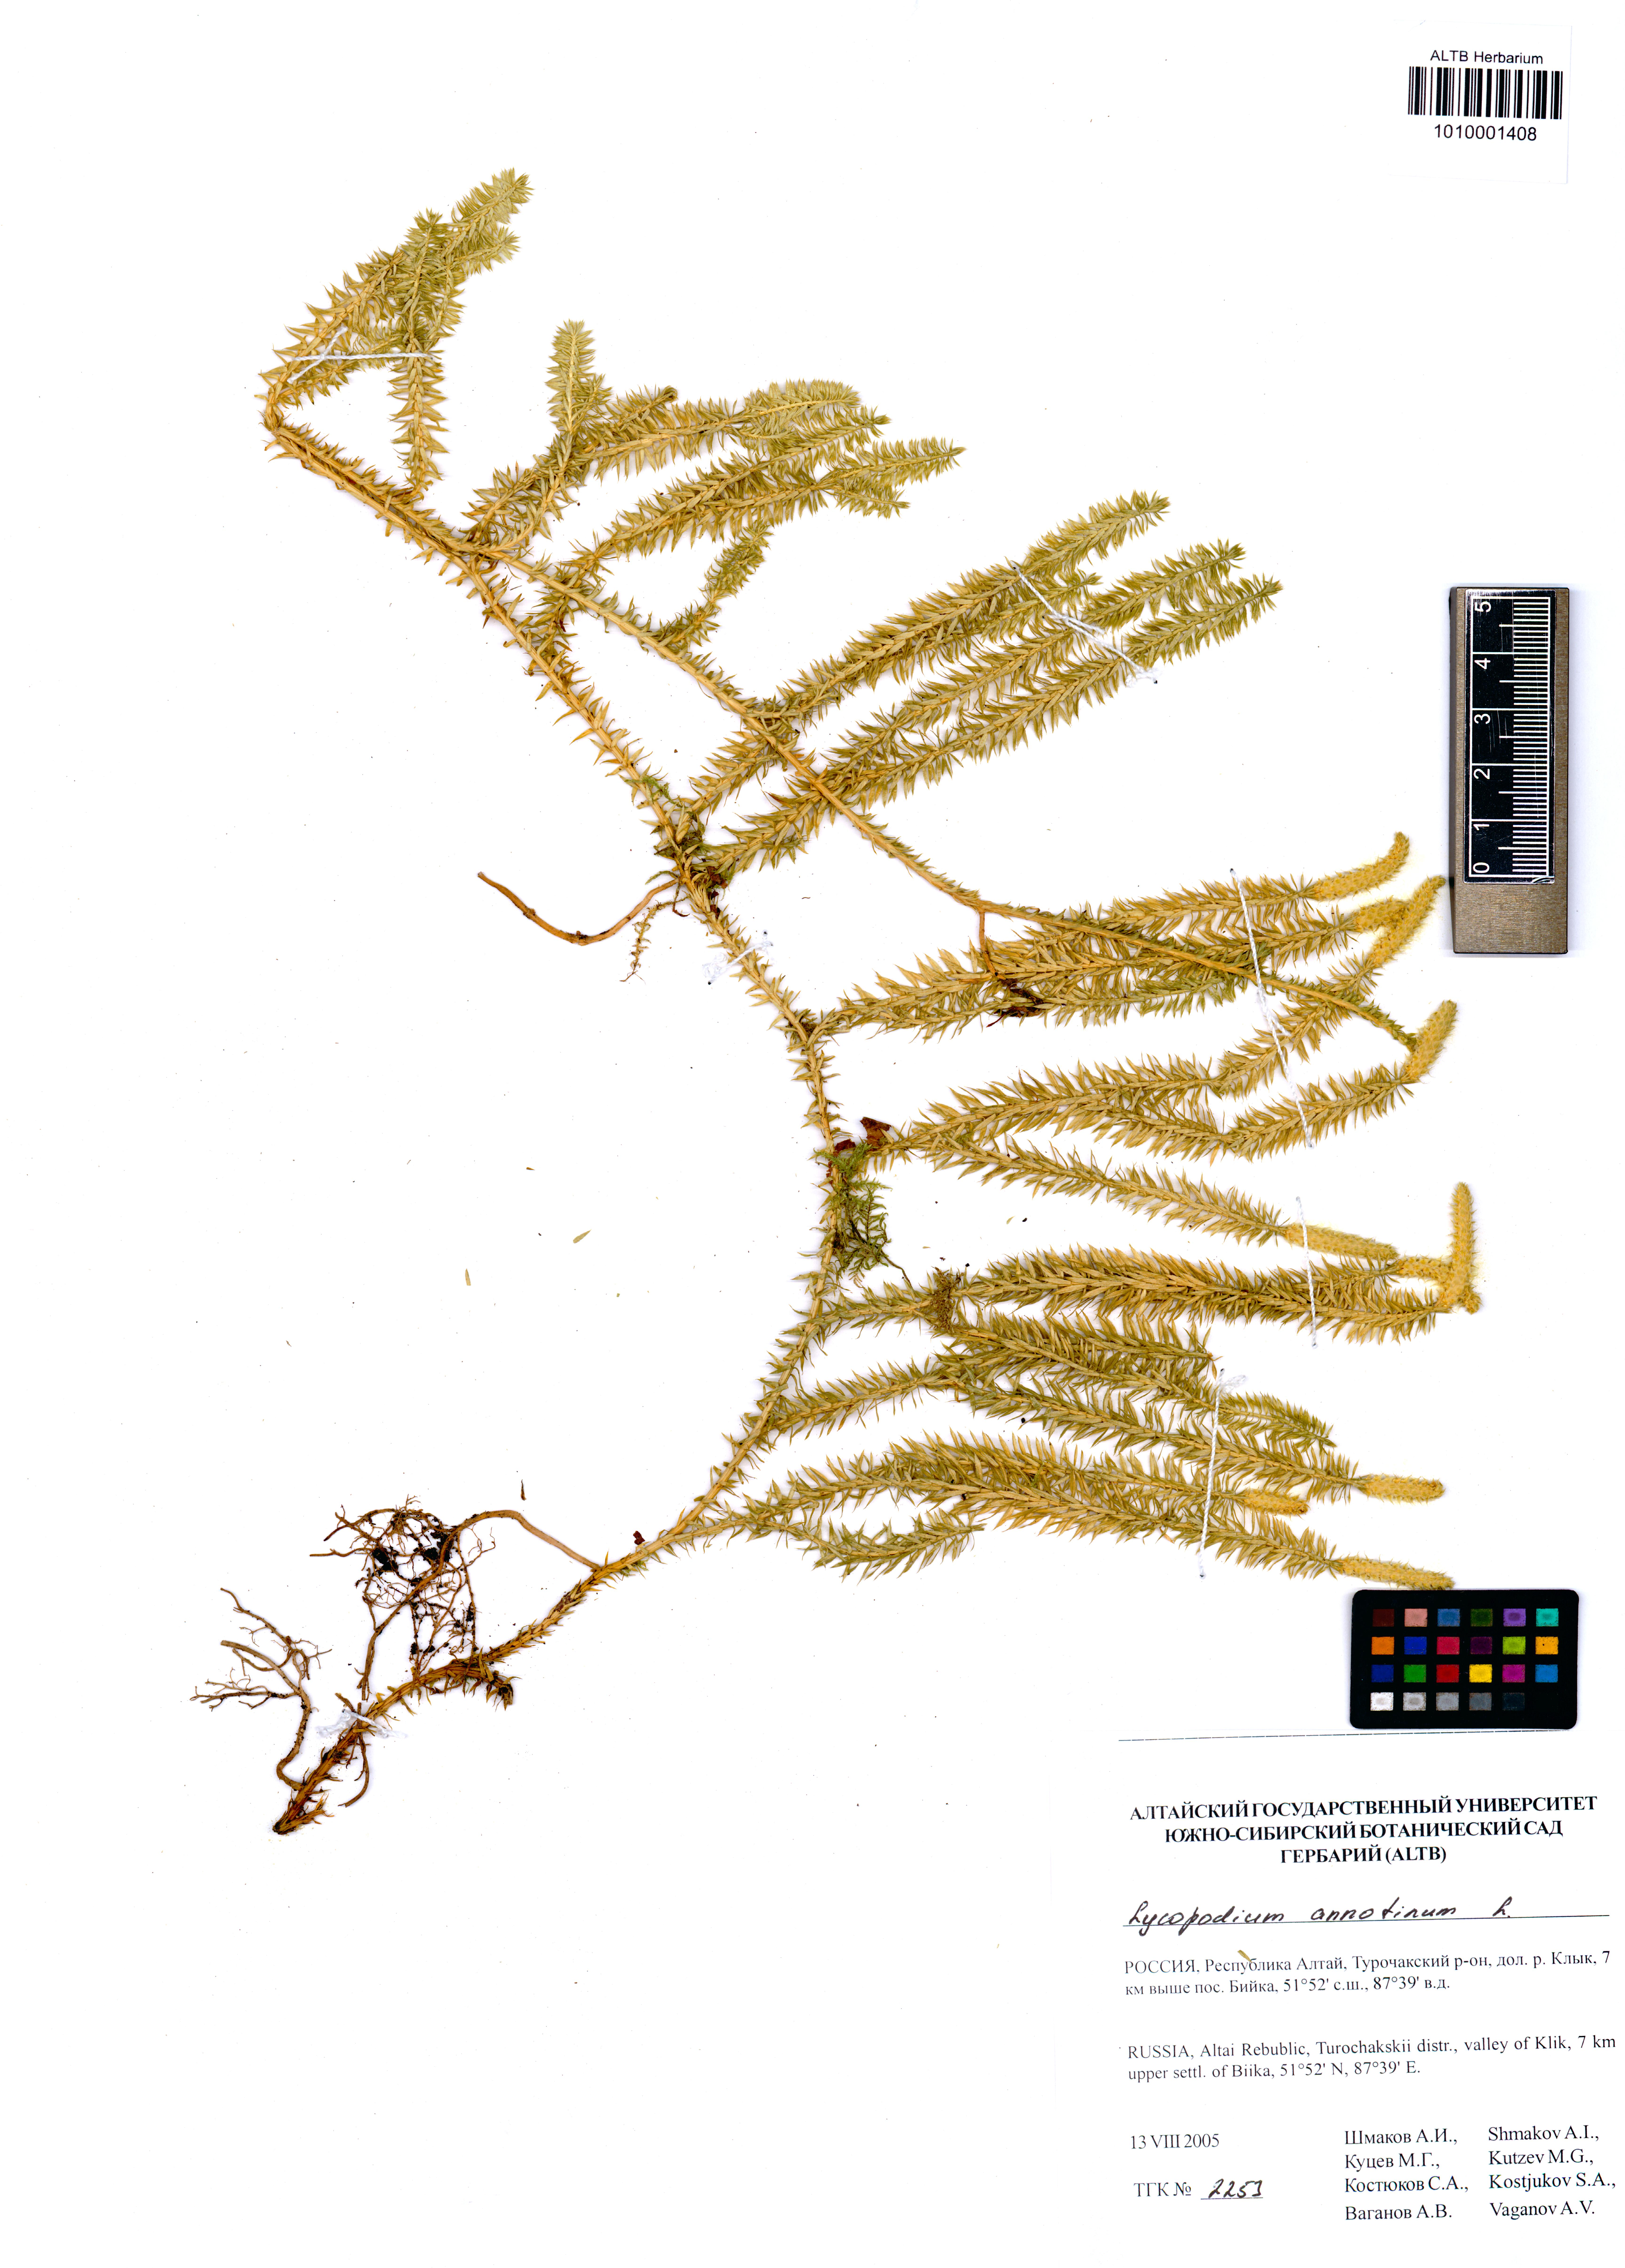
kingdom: Plantae
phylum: Tracheophyta
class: Lycopodiopsida
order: Lycopodiales
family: Lycopodiaceae
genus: Spinulum
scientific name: Spinulum annotinum
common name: Interrupted club-moss
